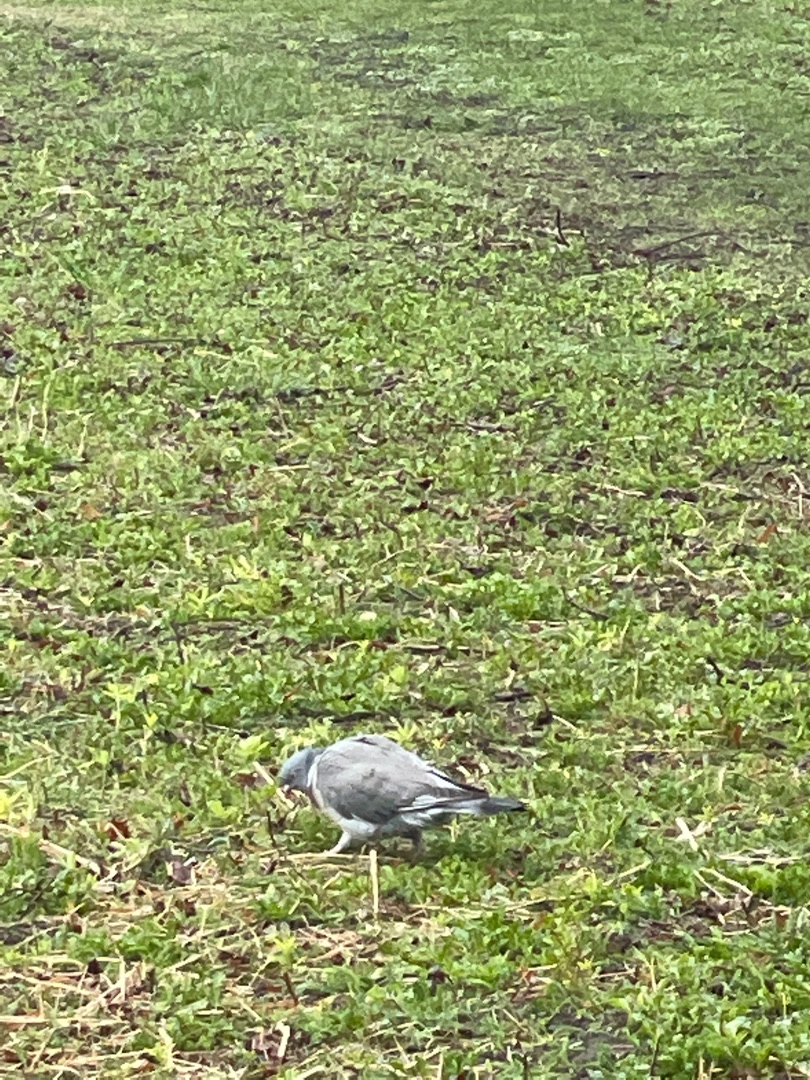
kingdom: Animalia
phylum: Chordata
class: Aves
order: Columbiformes
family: Columbidae
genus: Columba
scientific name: Columba palumbus
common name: Ringdue
